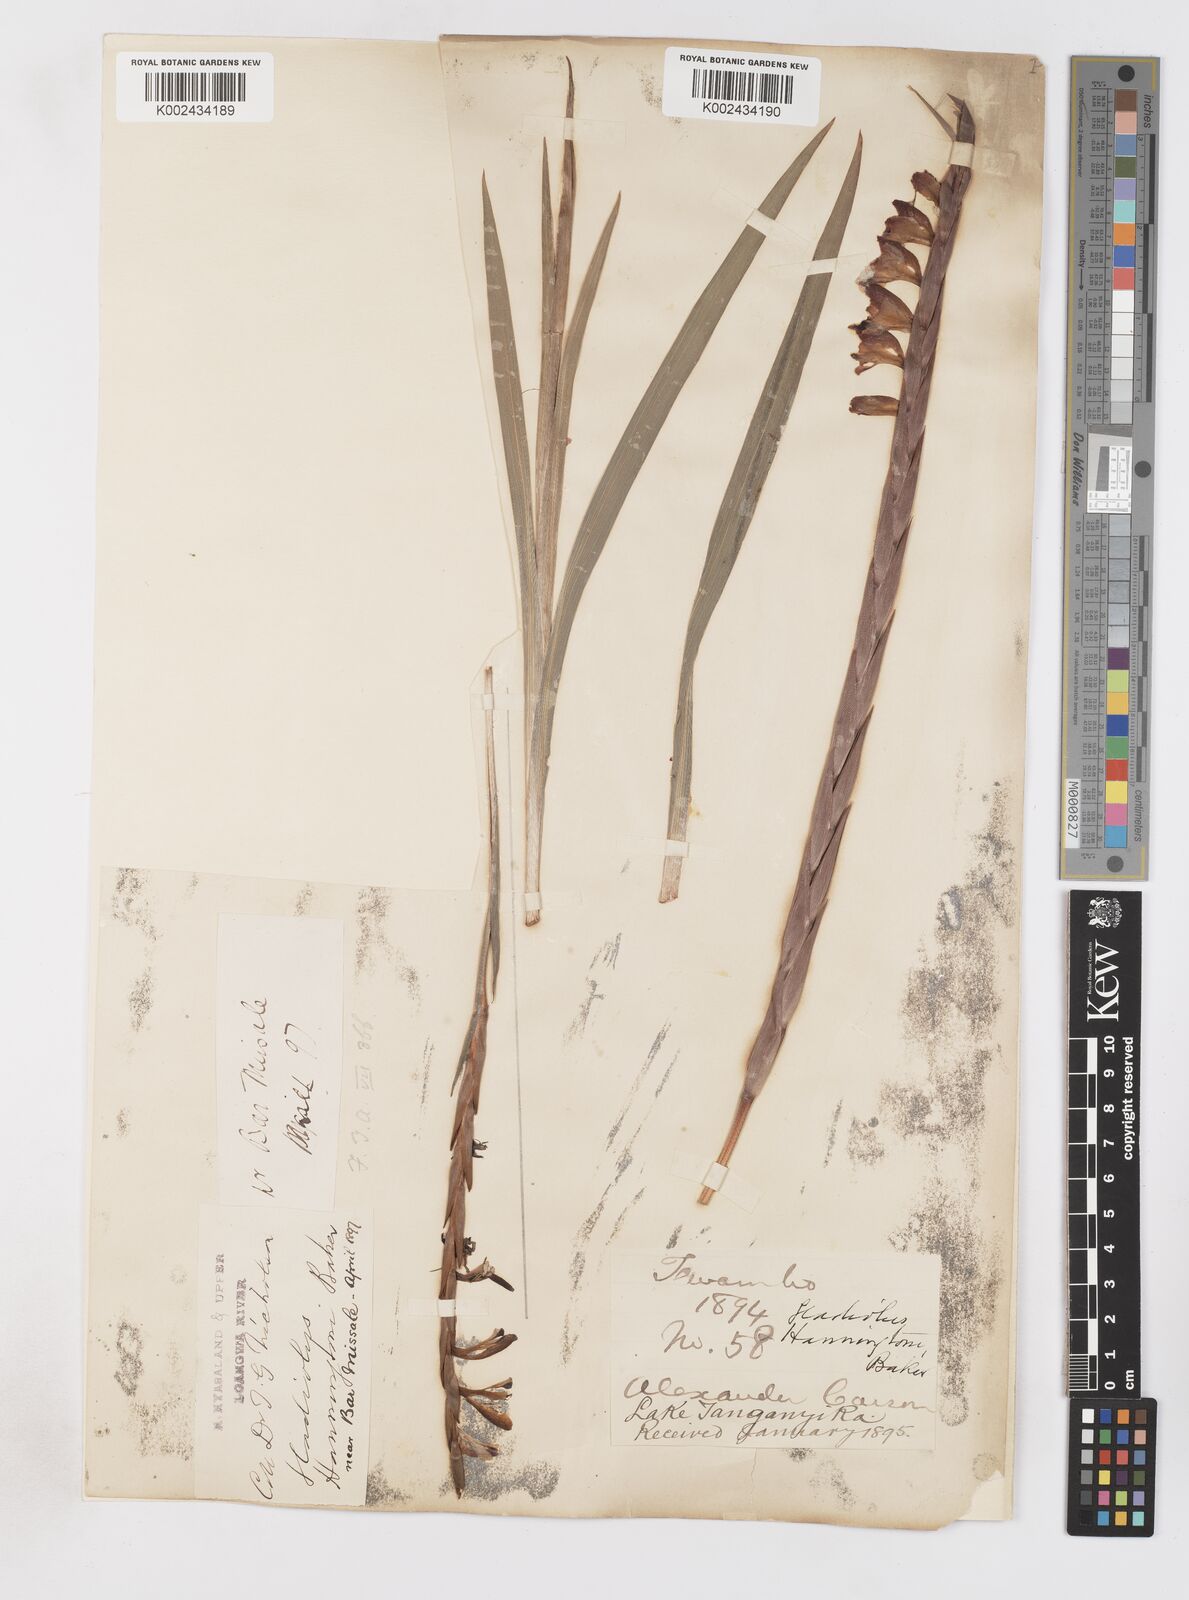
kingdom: Plantae
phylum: Tracheophyta
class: Liliopsida
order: Asparagales
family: Iridaceae
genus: Gladiolus
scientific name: Gladiolus gregarius
